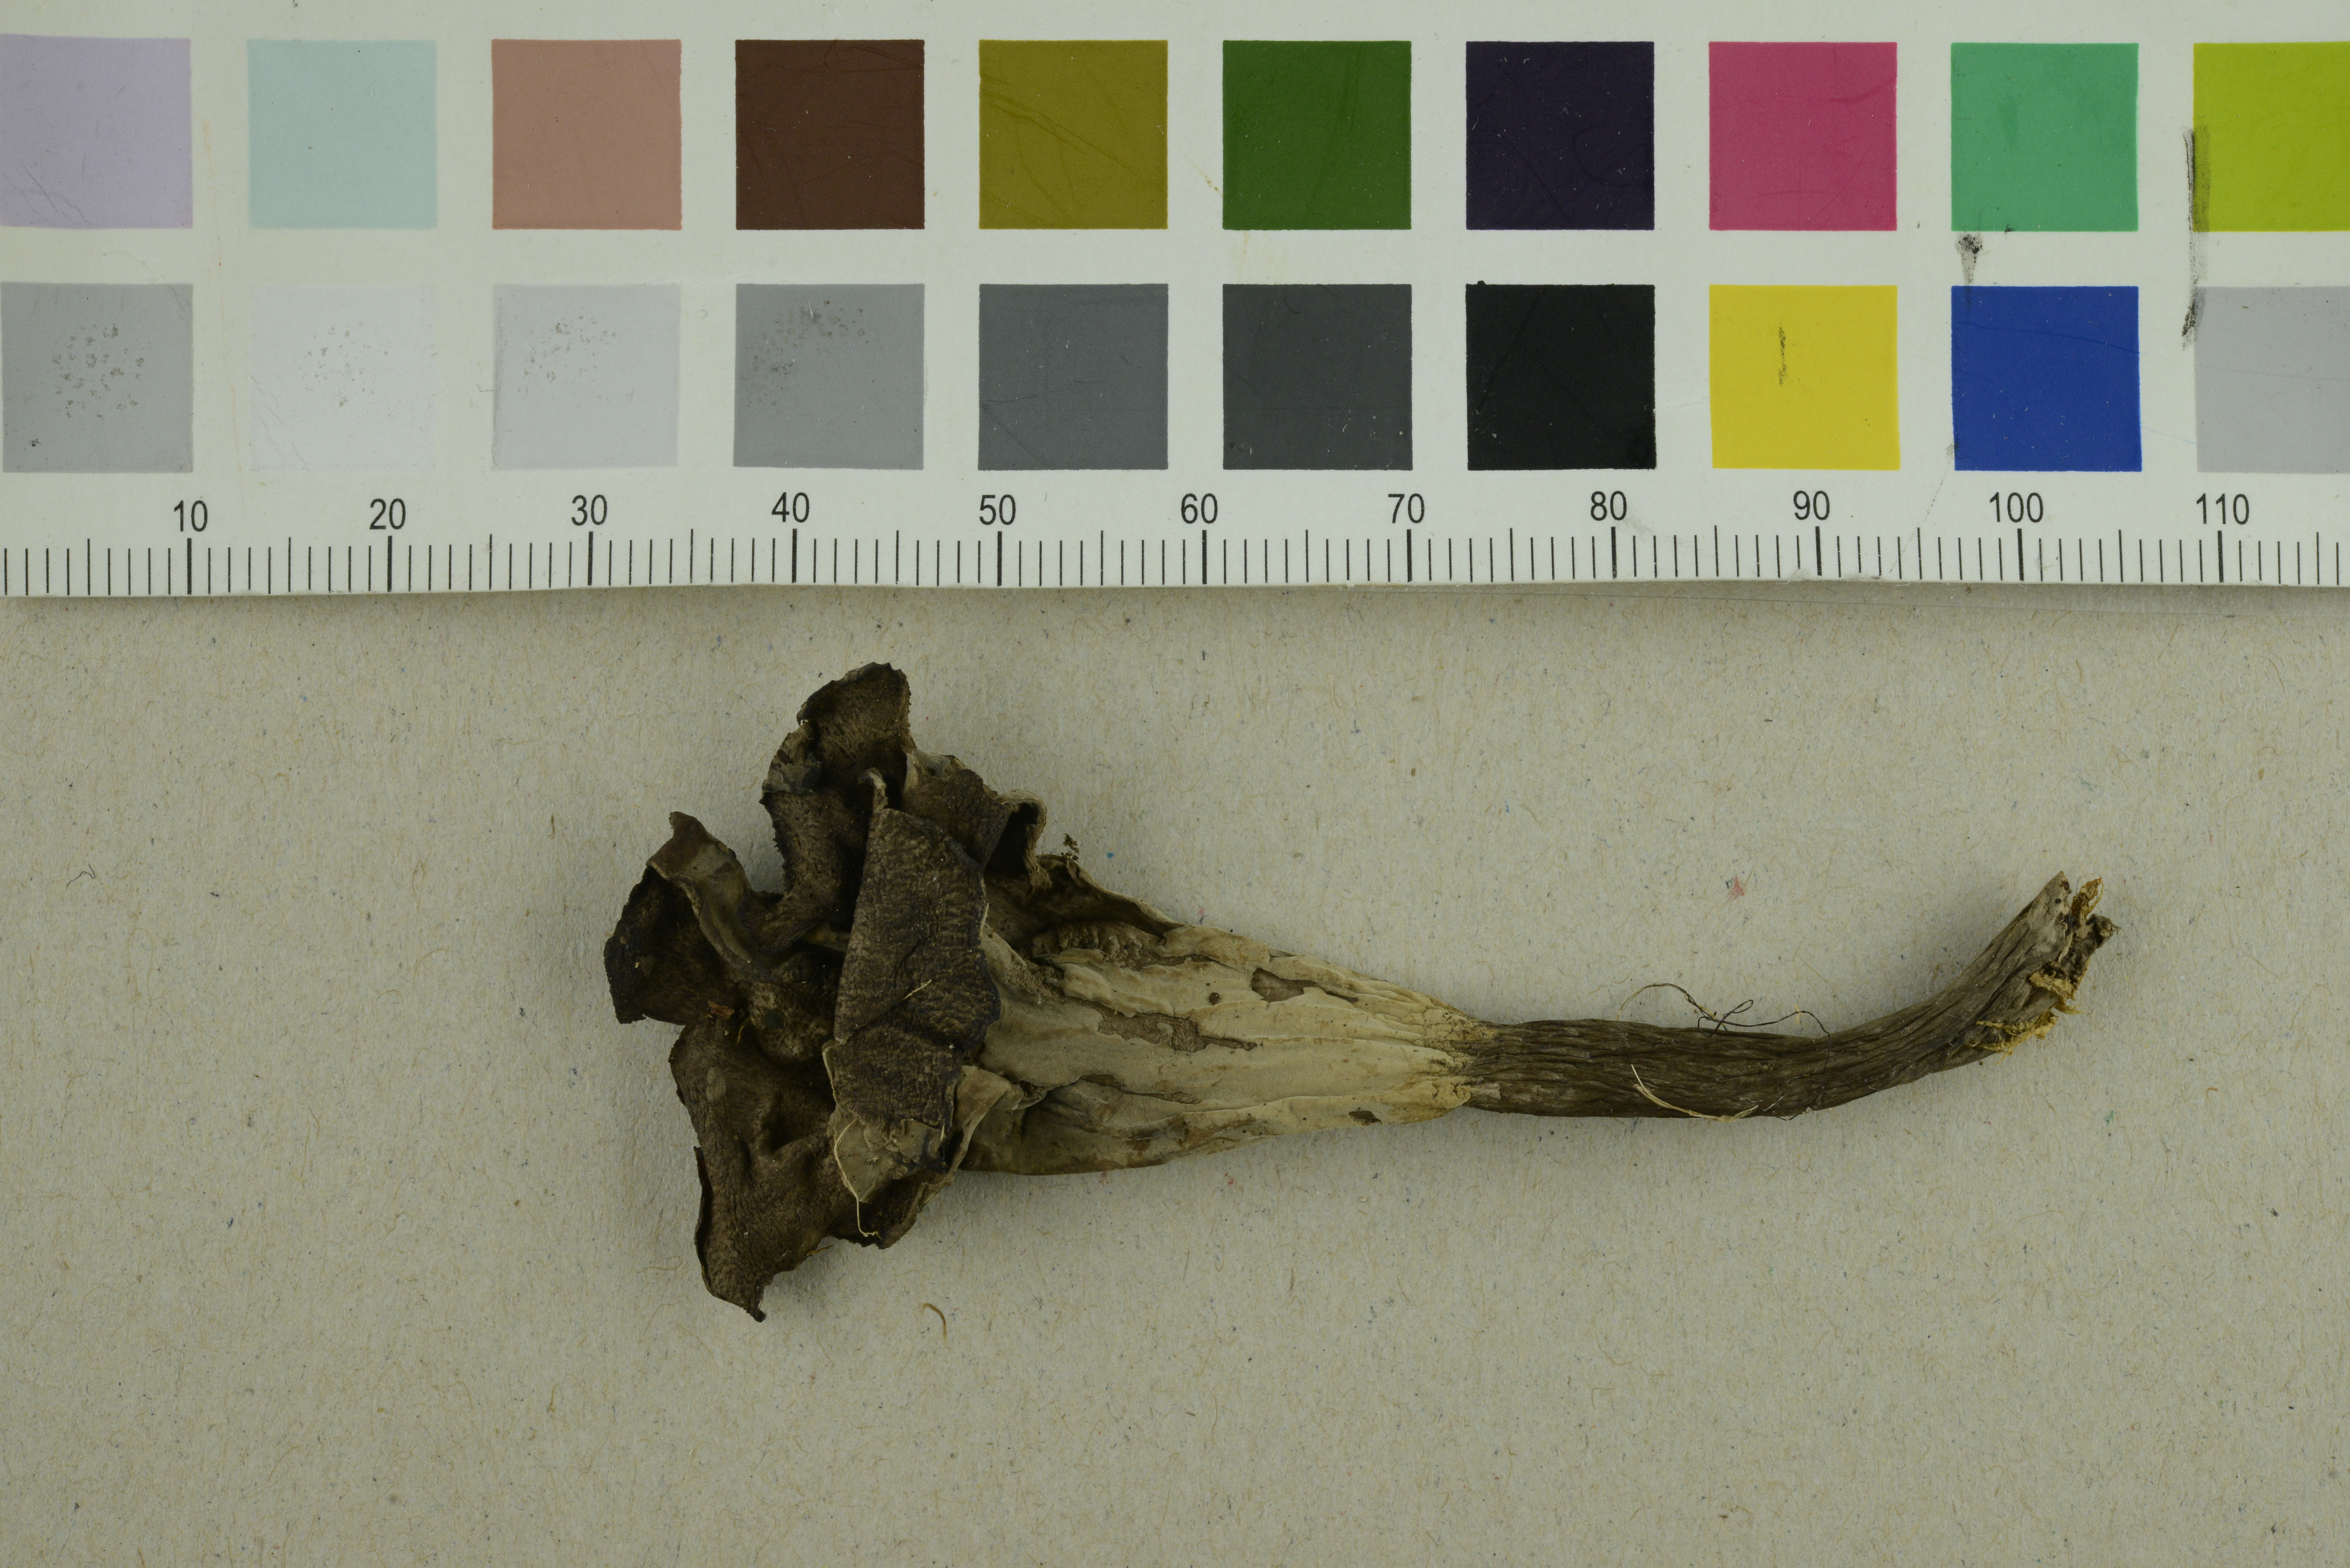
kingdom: Fungi
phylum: Basidiomycota
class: Agaricomycetes
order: Cantharellales
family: Hydnaceae
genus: Craterellus
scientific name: Craterellus cornucopioides
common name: Horn of plenty
